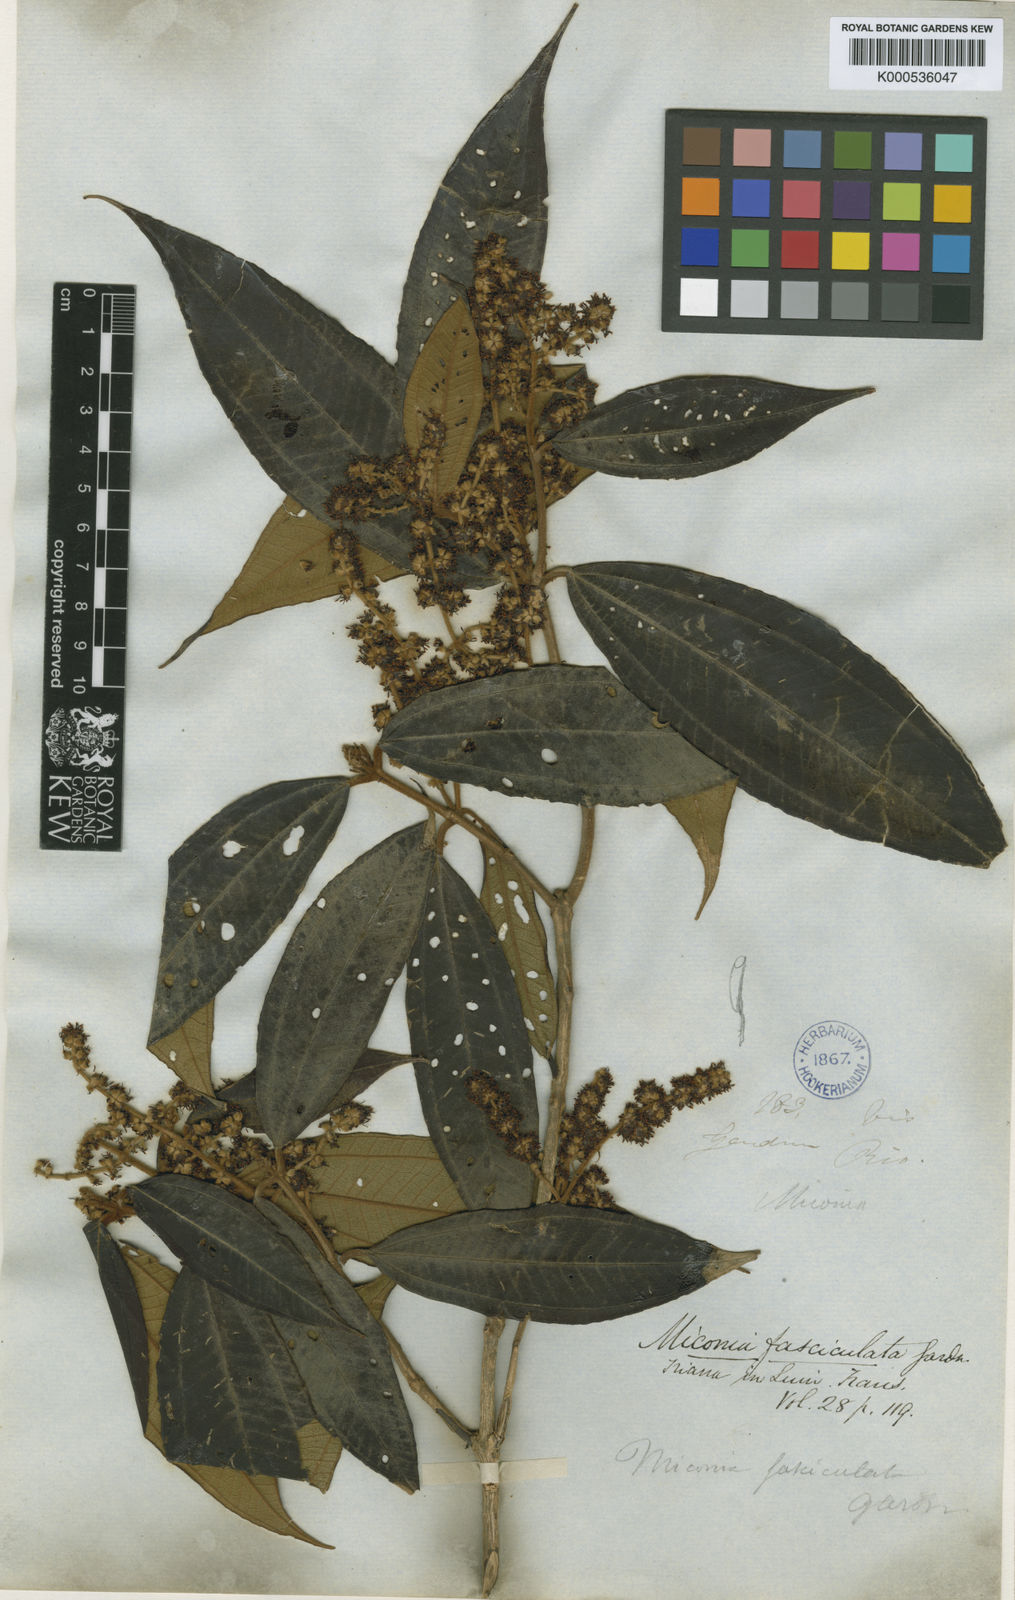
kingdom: Plantae
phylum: Tracheophyta
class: Magnoliopsida
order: Myrtales
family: Melastomataceae
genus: Miconia
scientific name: Miconia fasciculata
